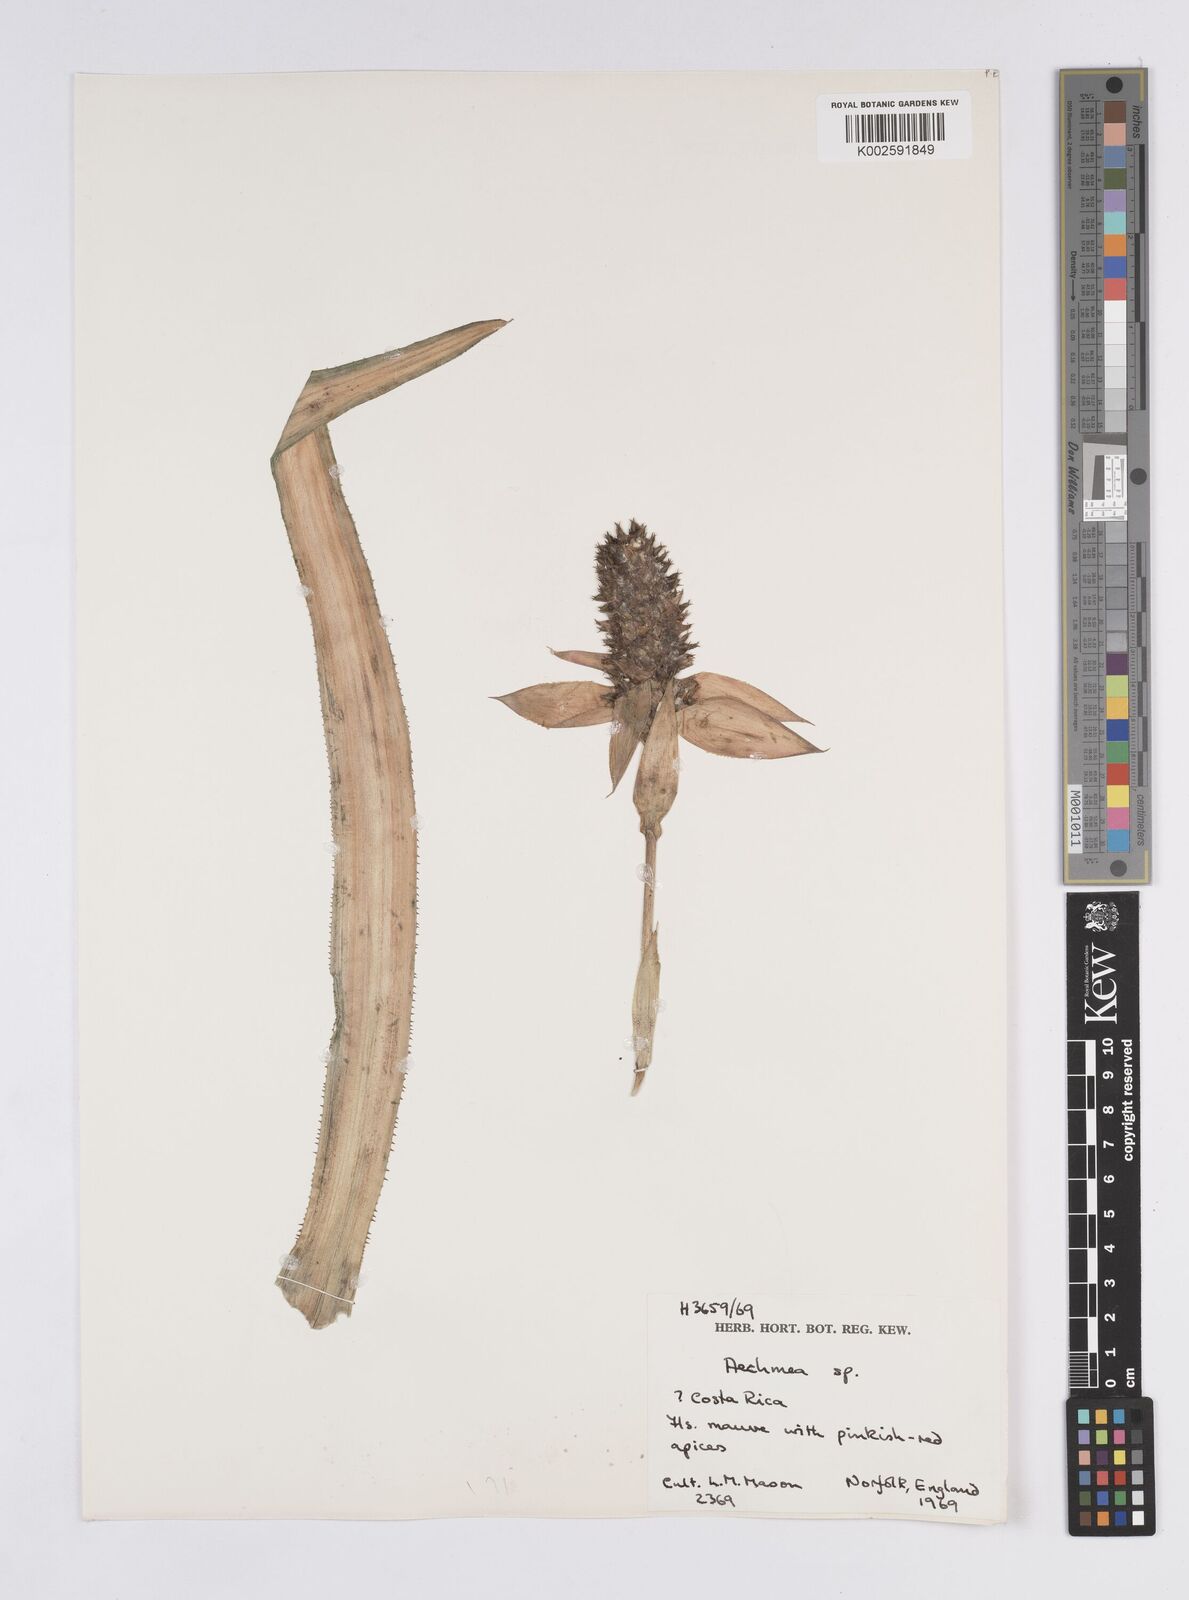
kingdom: Plantae
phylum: Tracheophyta
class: Liliopsida
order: Poales
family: Bromeliaceae
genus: Aechmea
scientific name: Aechmea
